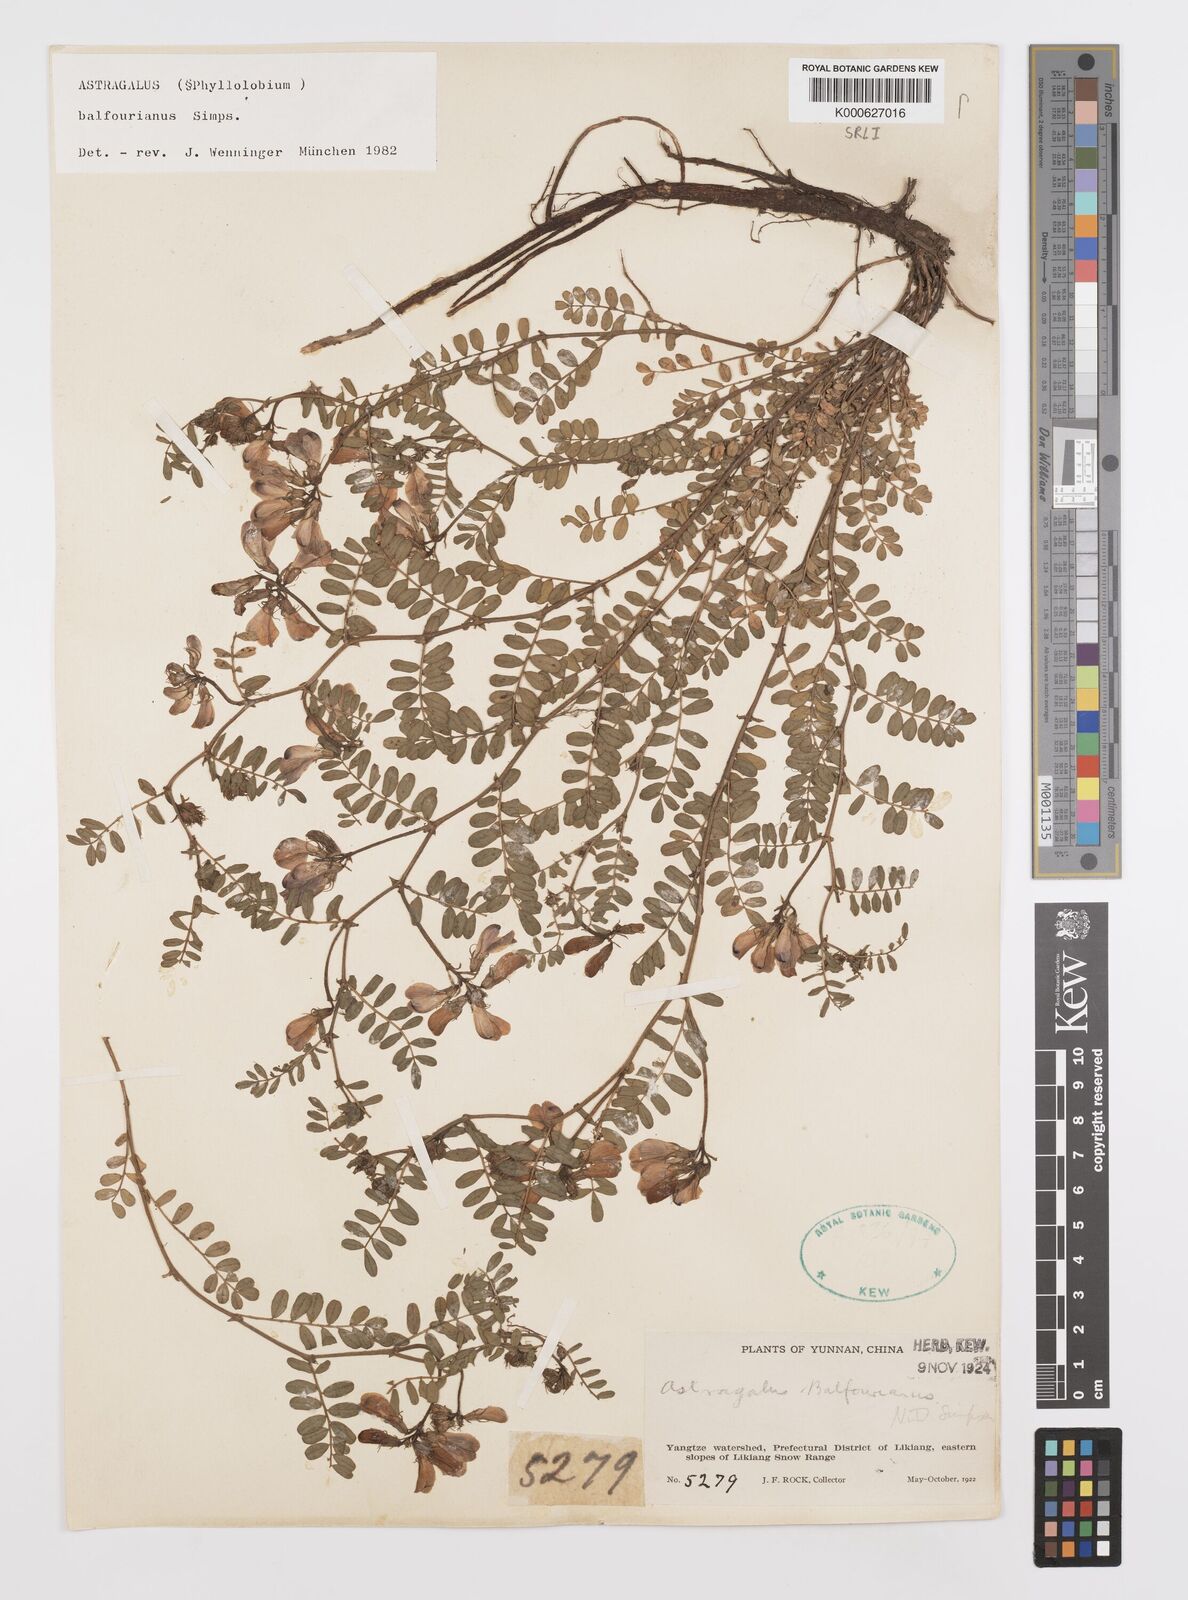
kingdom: Plantae
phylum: Tracheophyta
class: Magnoliopsida
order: Fabales
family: Fabaceae
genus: Phyllolobium
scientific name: Phyllolobium balfourianum
